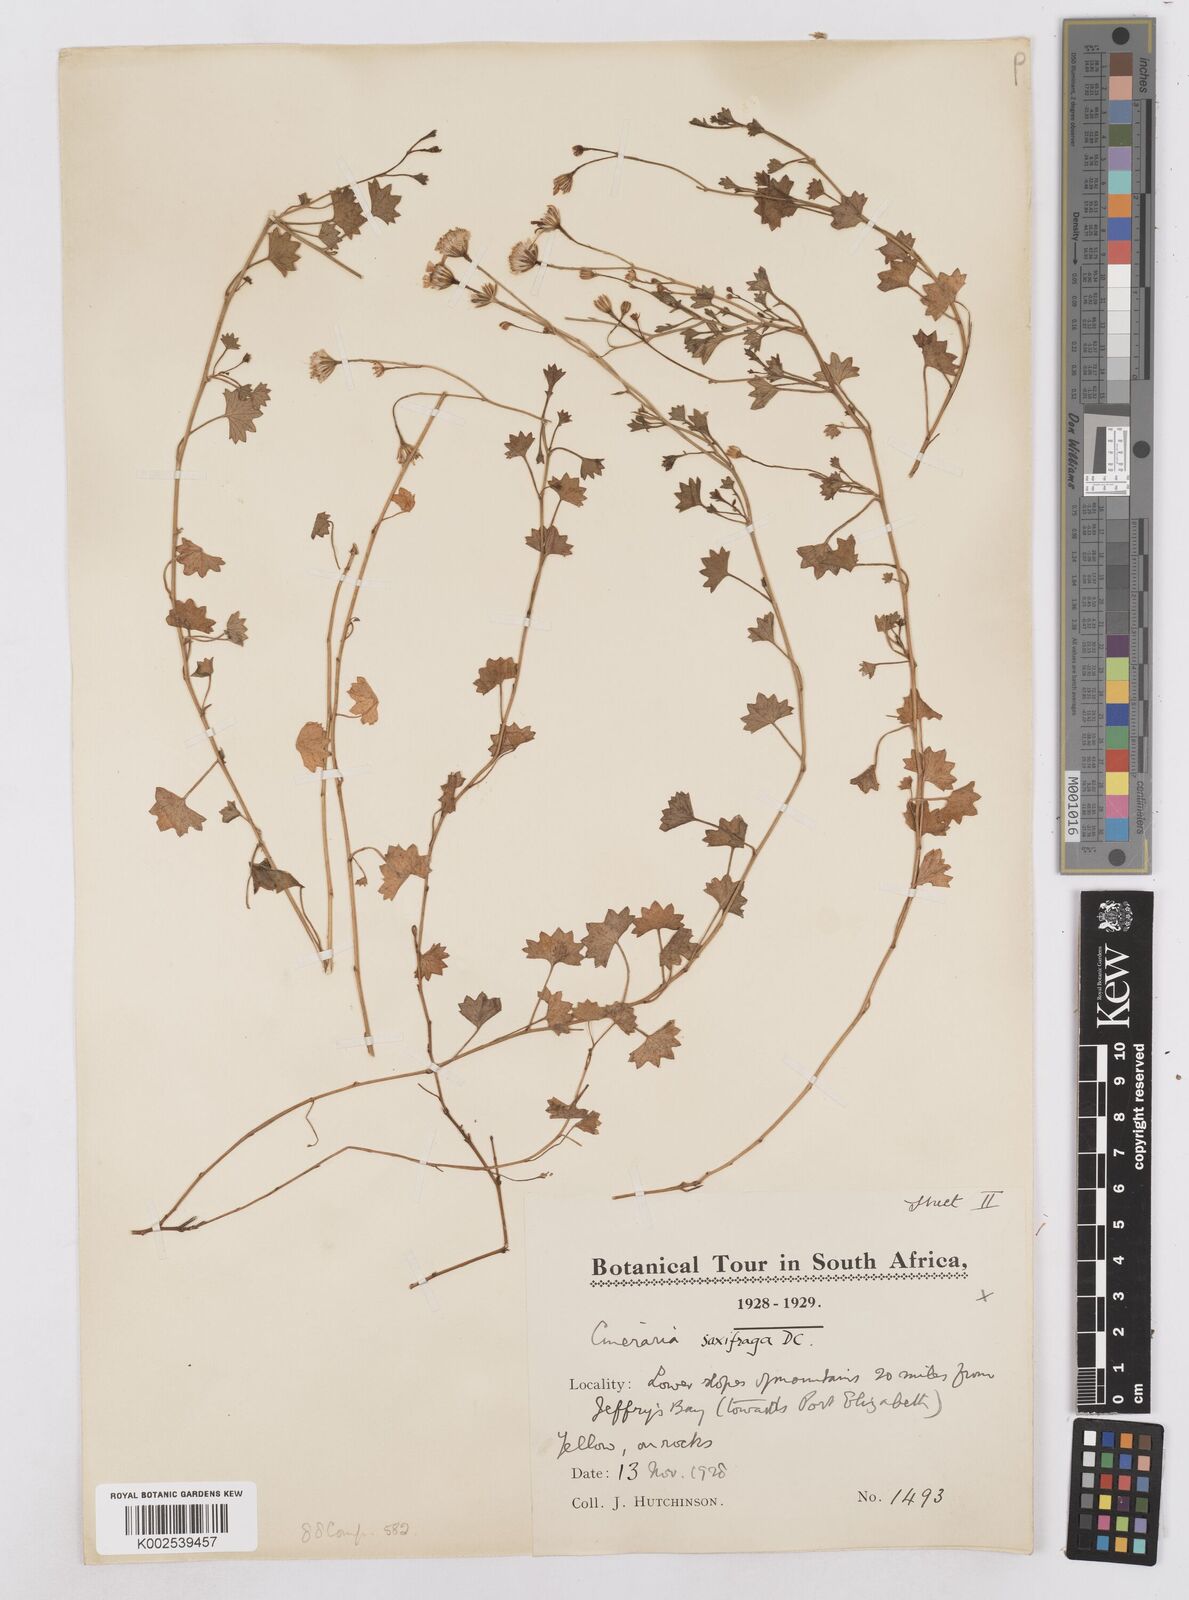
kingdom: Plantae
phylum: Tracheophyta
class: Magnoliopsida
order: Asterales
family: Asteraceae
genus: Cineraria
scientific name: Cineraria saxifraga
